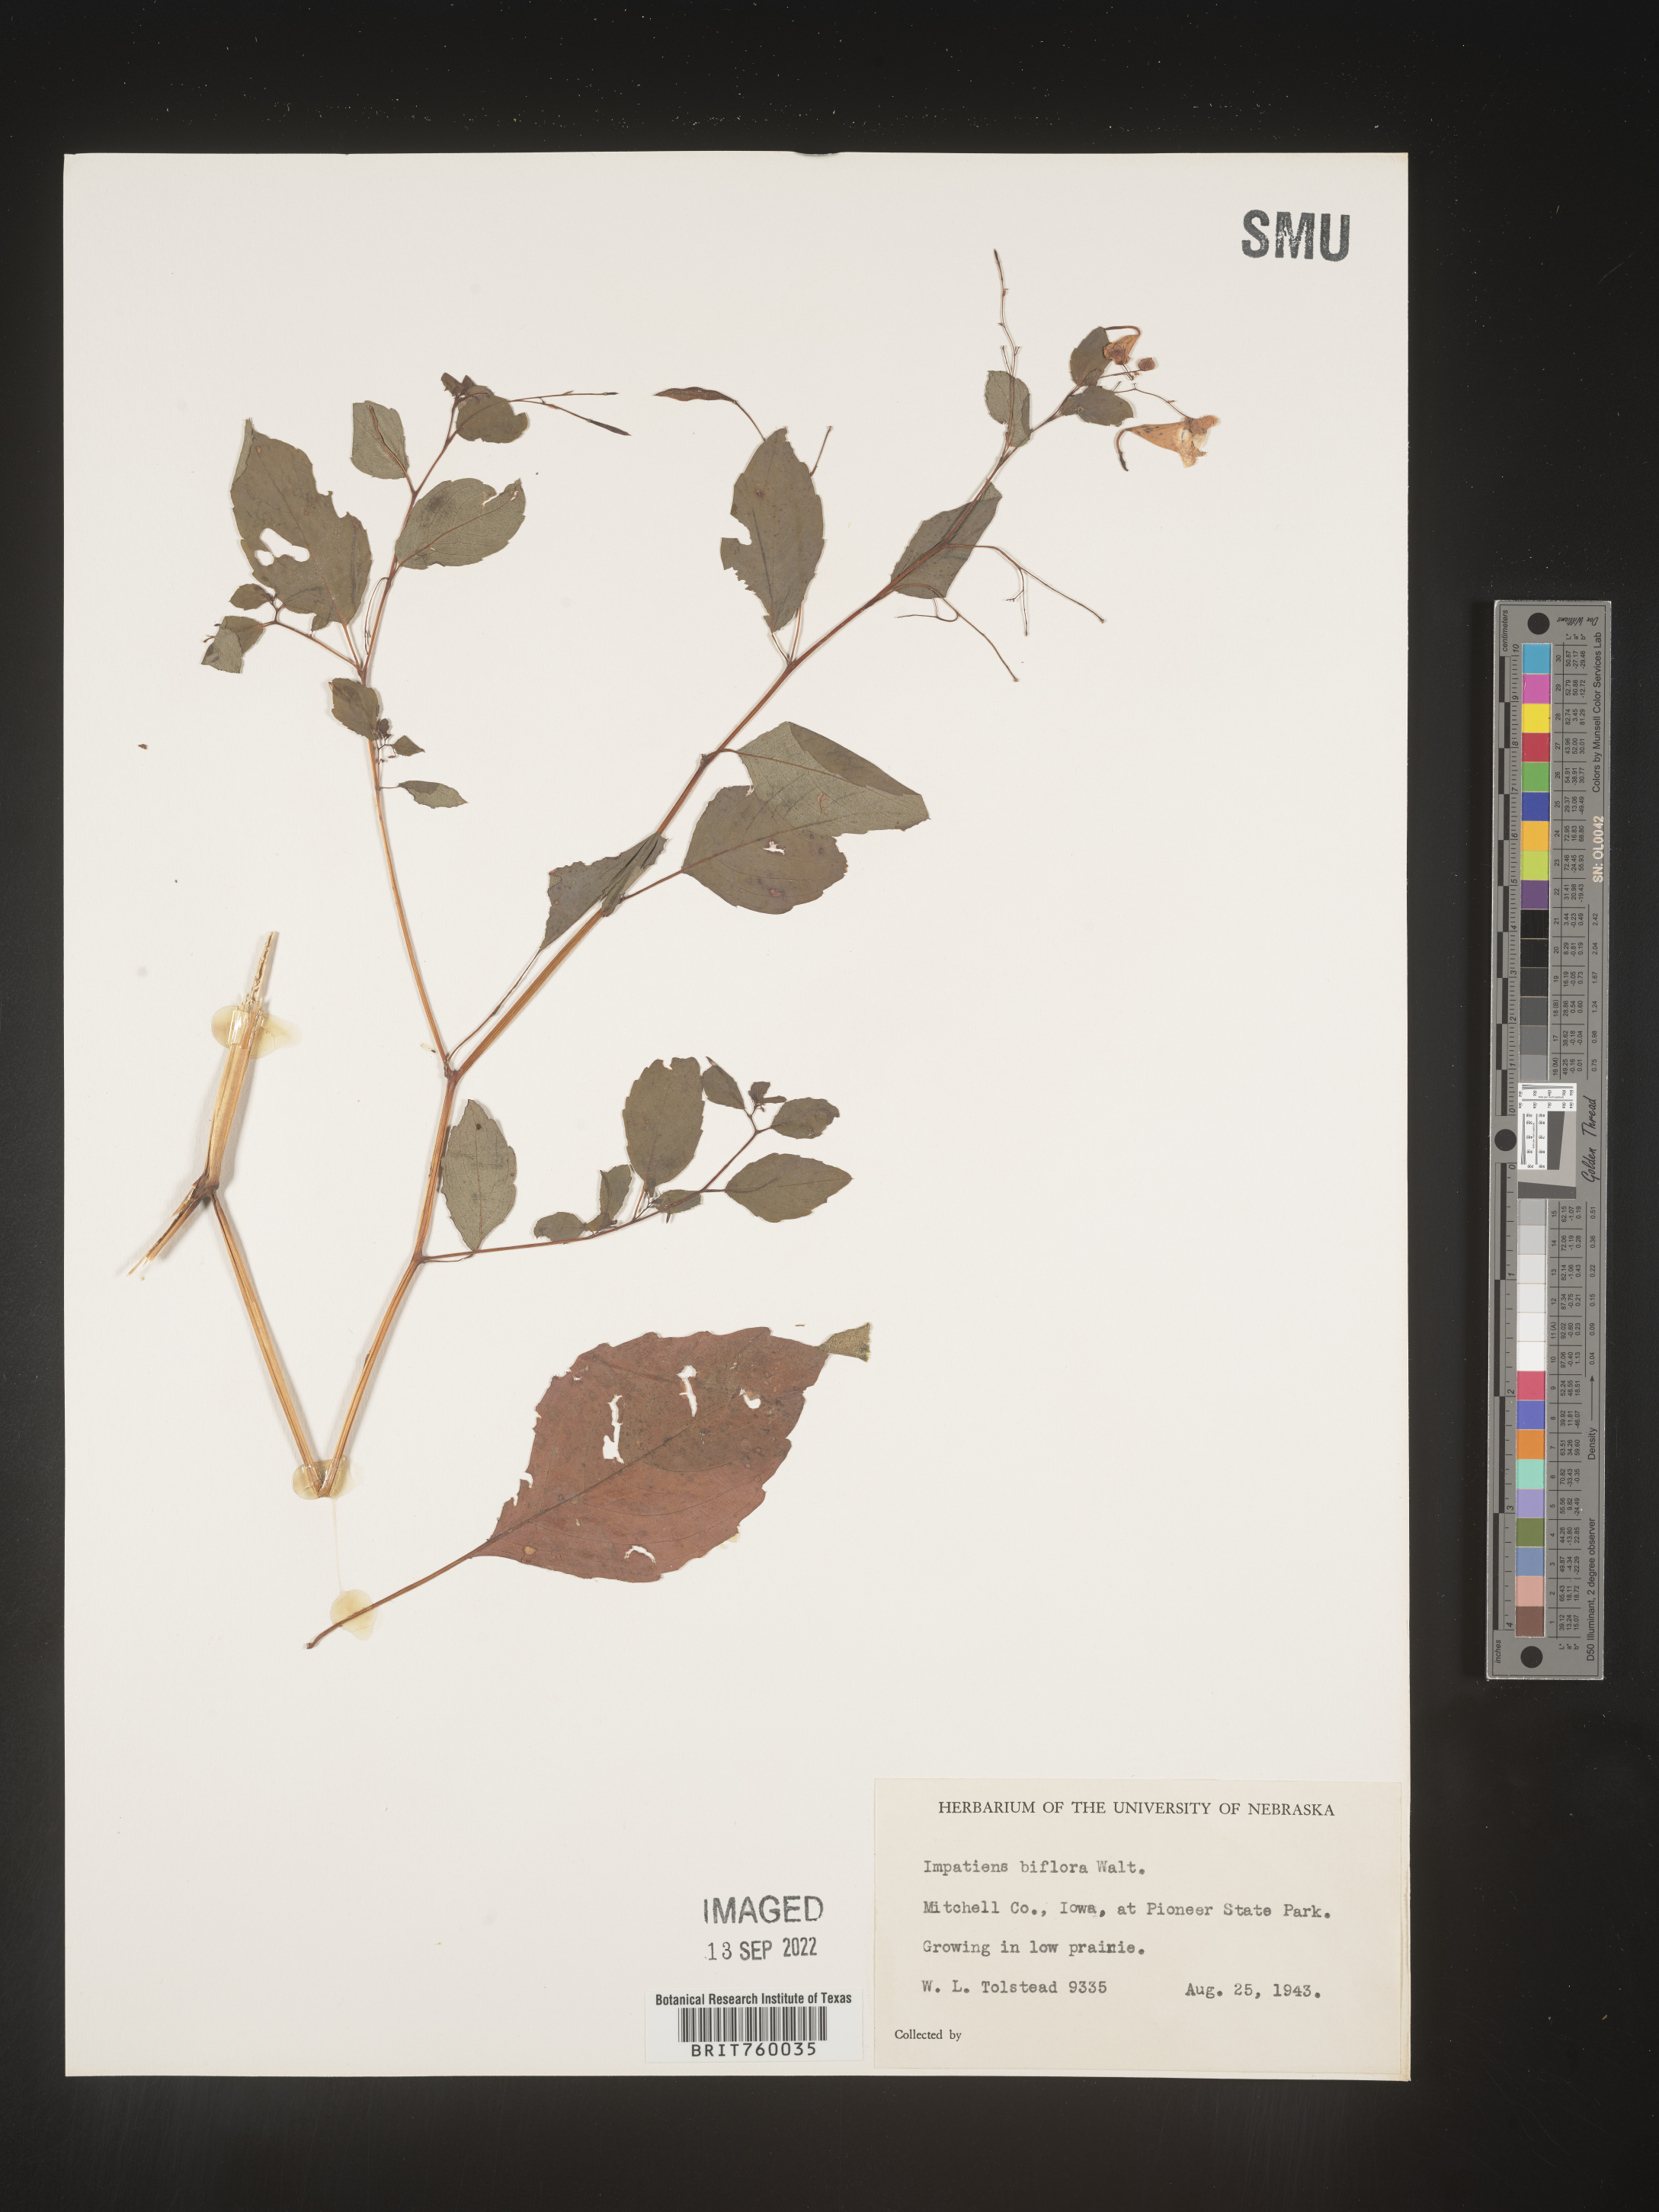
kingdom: Plantae
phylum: Tracheophyta
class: Magnoliopsida
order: Ericales
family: Balsaminaceae
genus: Impatiens
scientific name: Impatiens capensis
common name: Orange balsam
